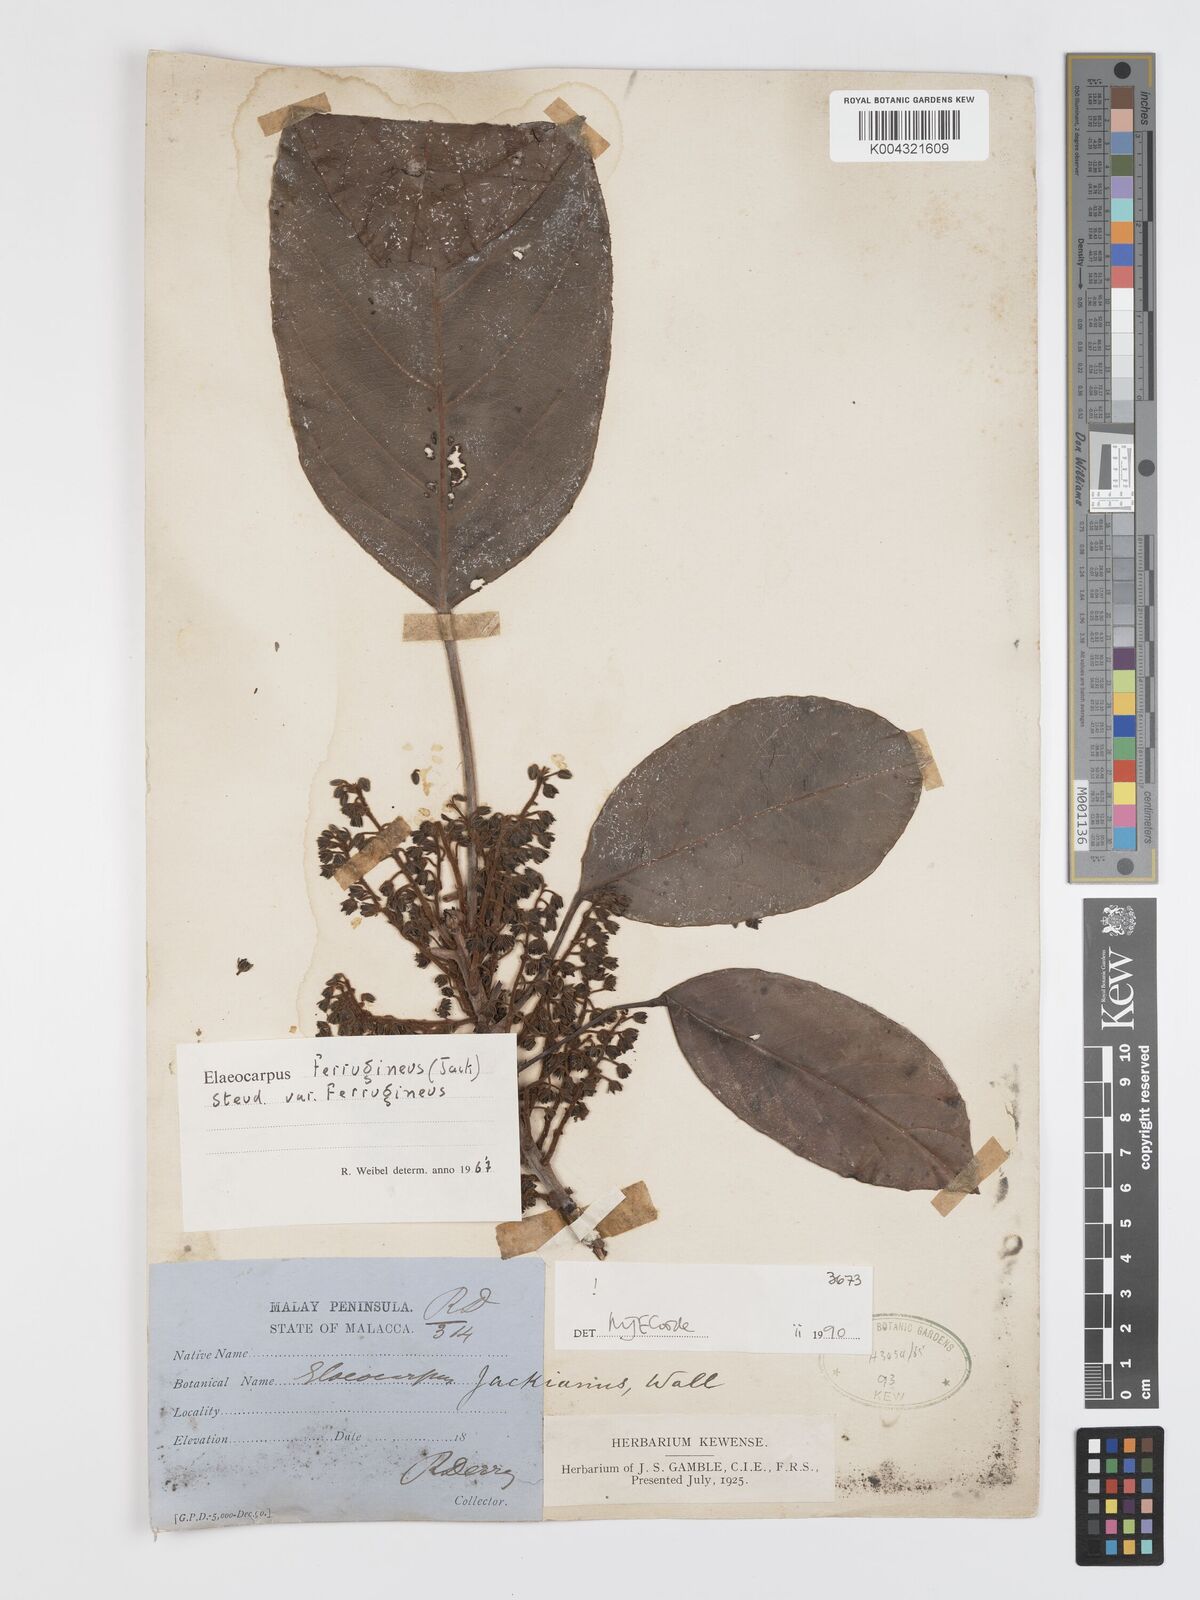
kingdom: Plantae
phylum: Tracheophyta
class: Magnoliopsida
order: Oxalidales
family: Elaeocarpaceae
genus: Elaeocarpus
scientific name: Elaeocarpus ferrugineus
